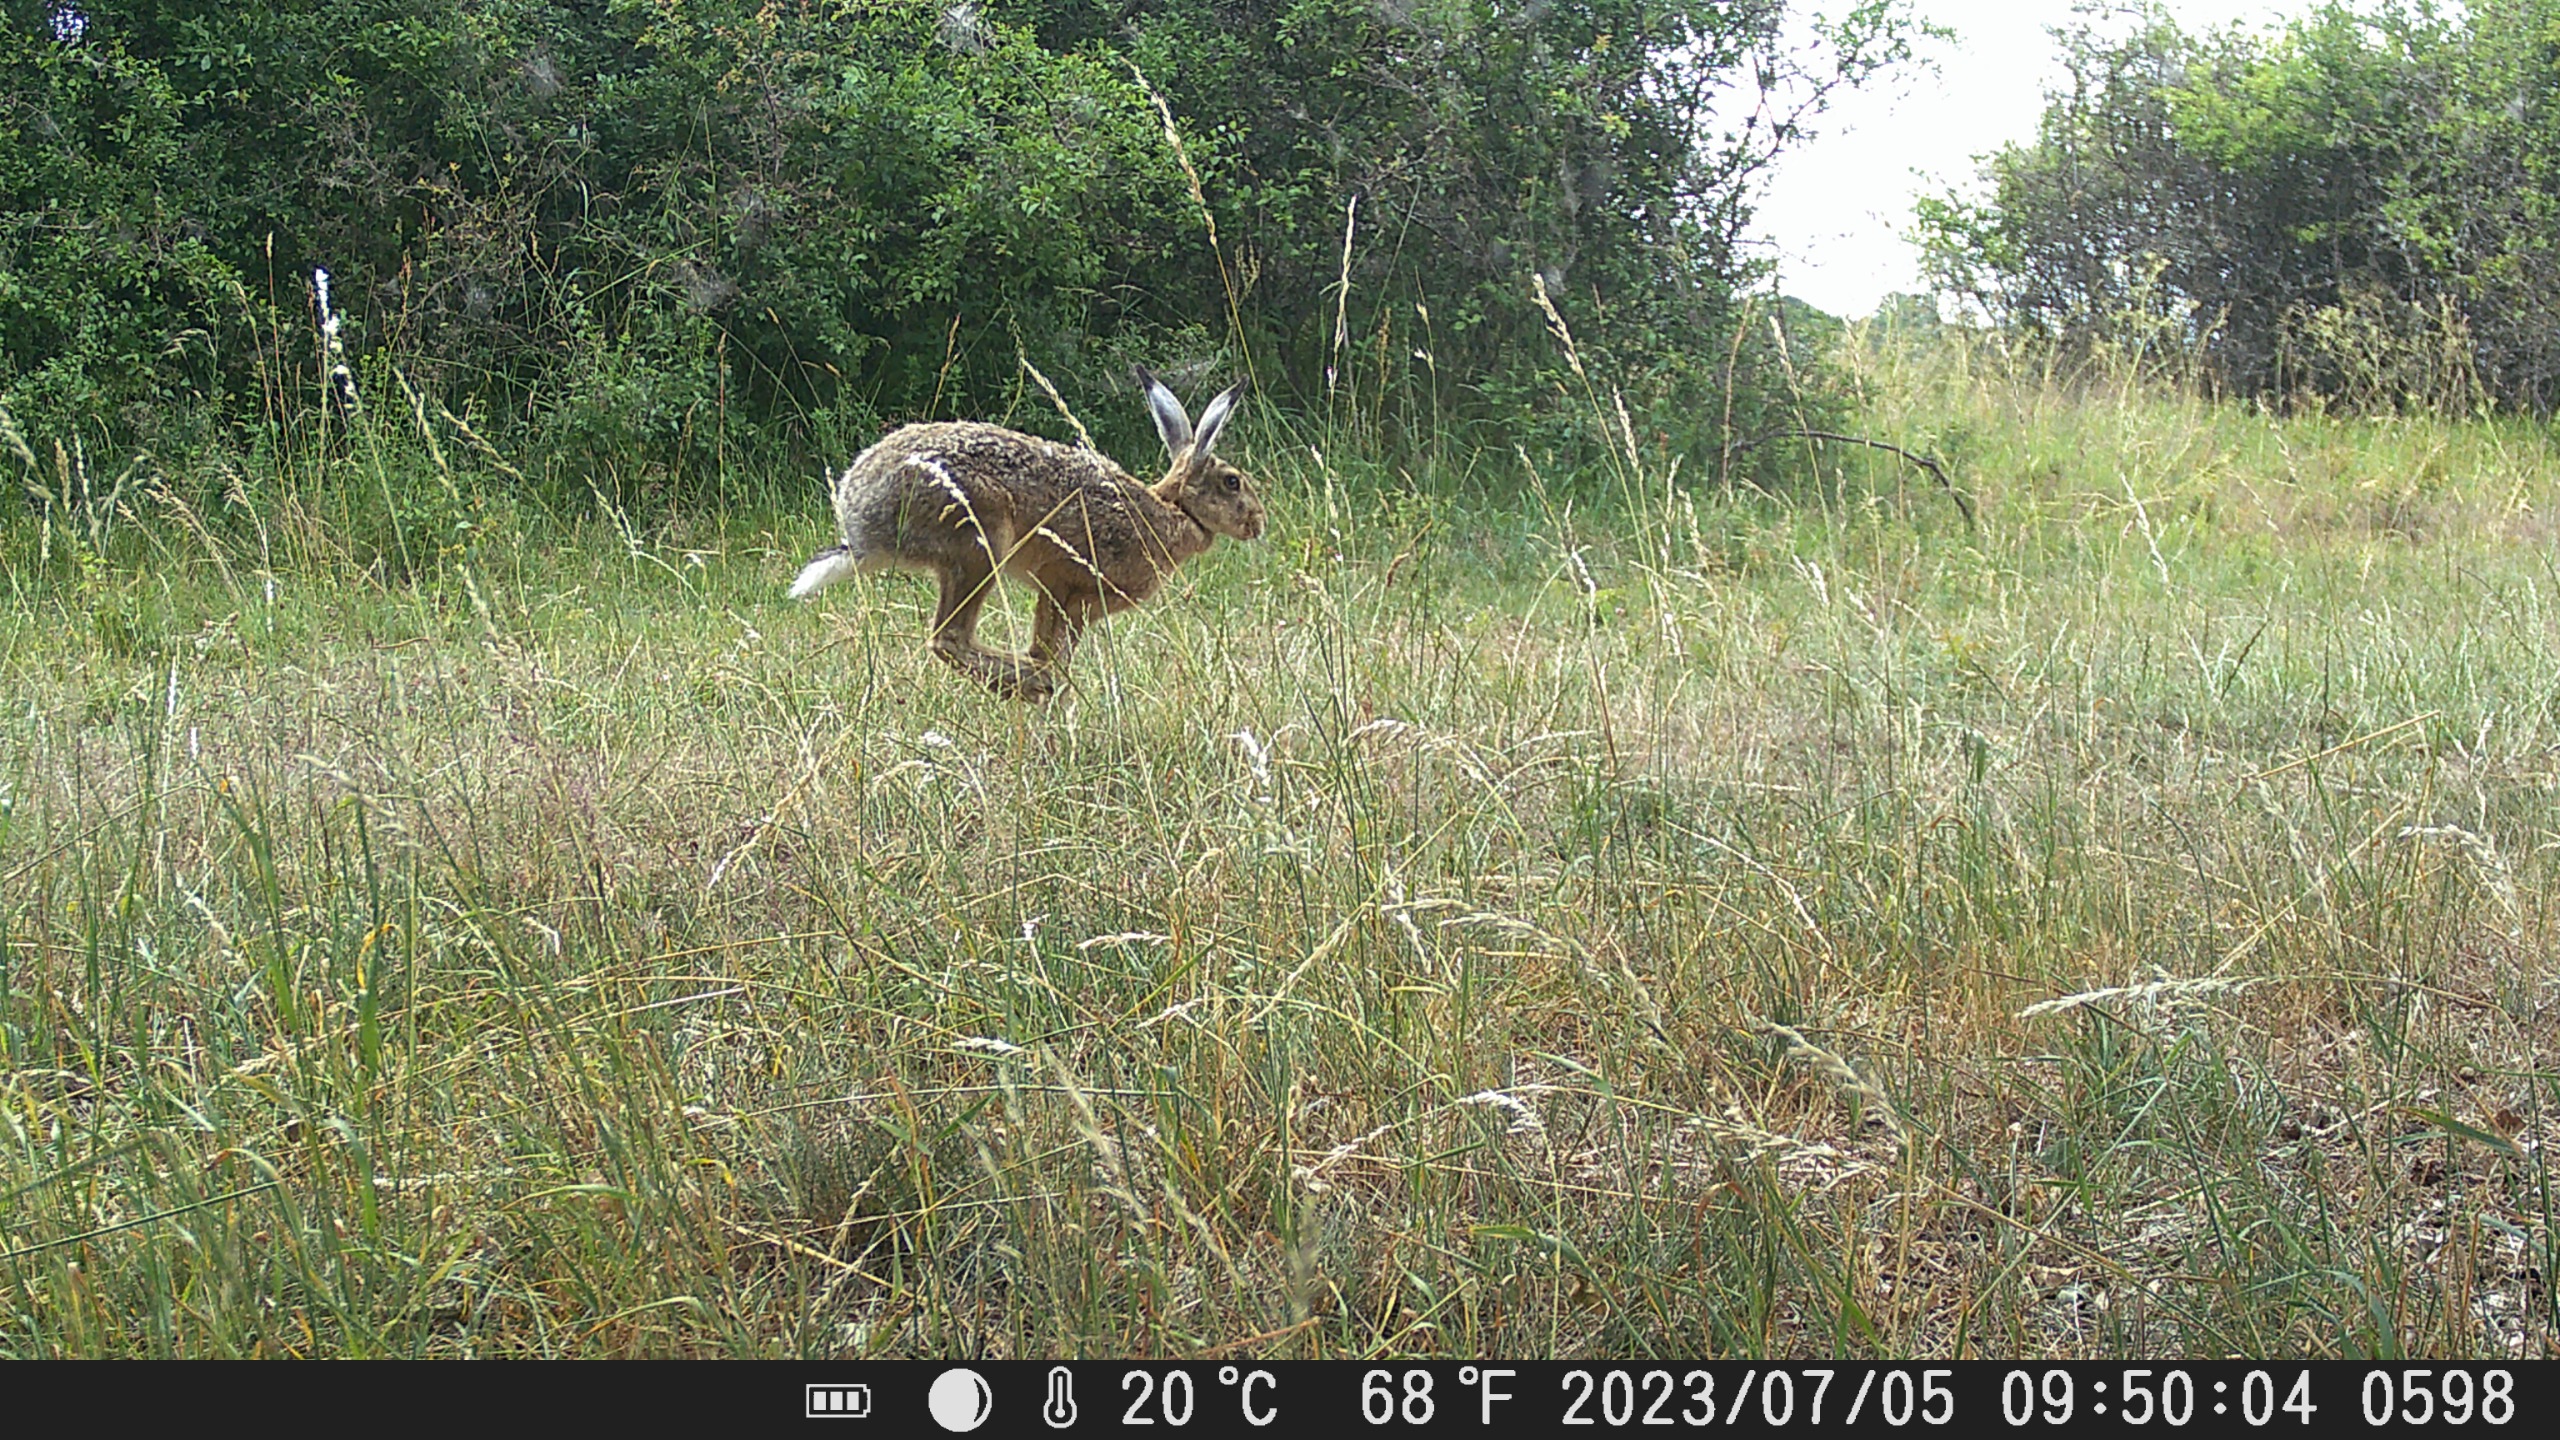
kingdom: Animalia
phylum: Chordata
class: Mammalia
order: Lagomorpha
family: Leporidae
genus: Lepus
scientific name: Lepus europaeus
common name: Hare
